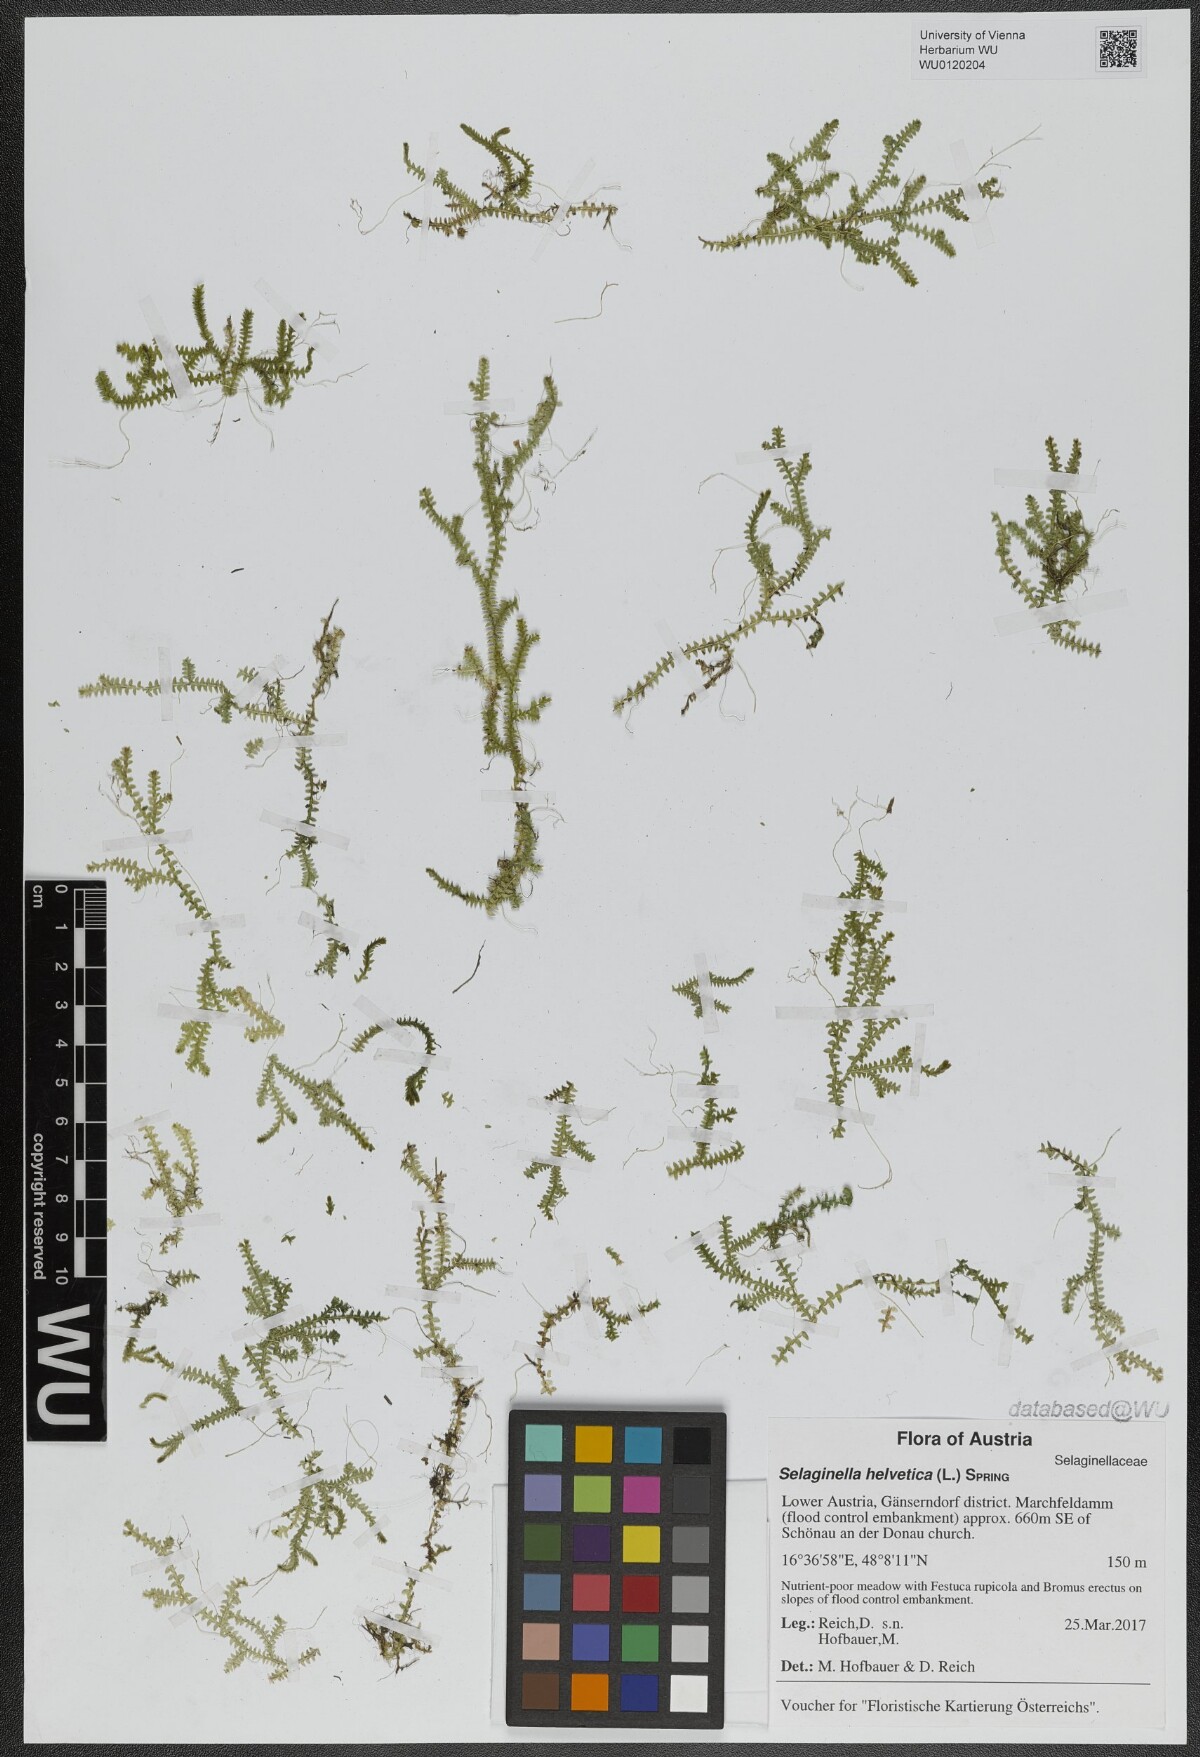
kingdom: Plantae
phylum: Tracheophyta
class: Lycopodiopsida
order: Selaginellales
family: Selaginellaceae
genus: Selaginella
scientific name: Selaginella helvetica
